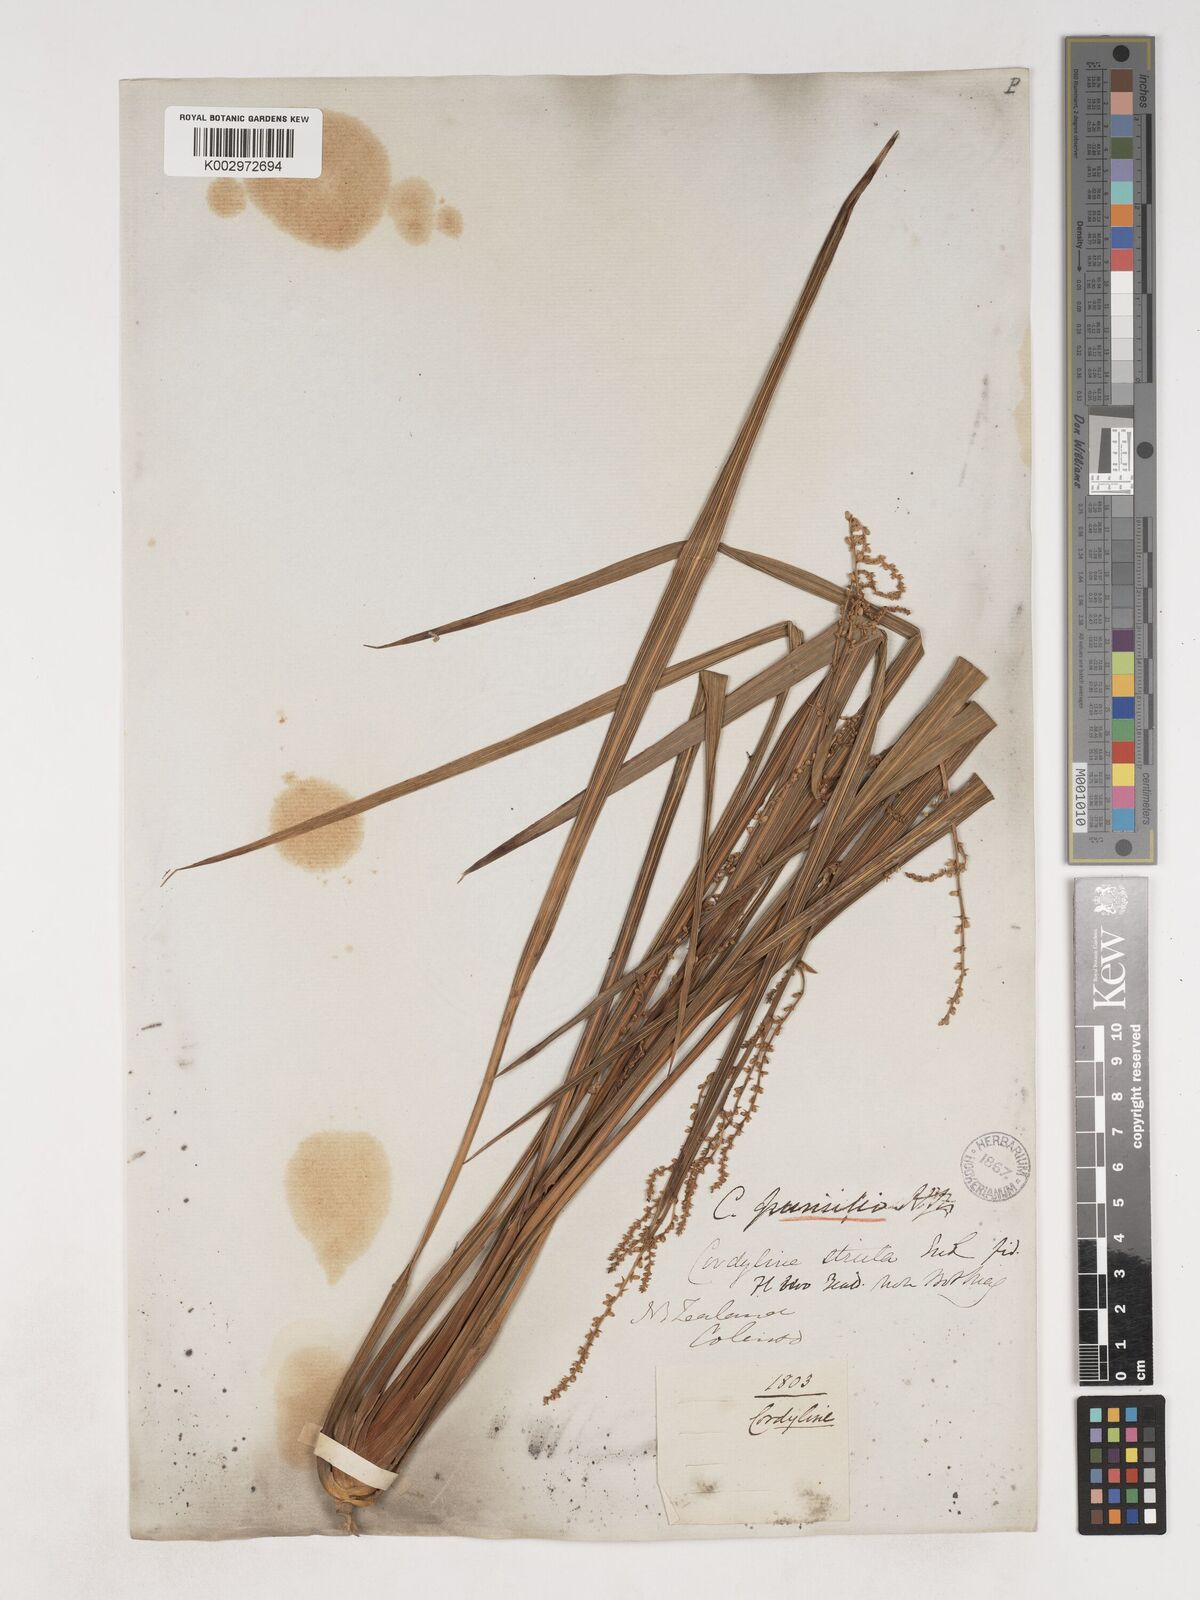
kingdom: Plantae
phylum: Tracheophyta
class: Liliopsida
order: Asparagales
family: Asparagaceae
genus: Cordyline
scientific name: Cordyline pumilio
